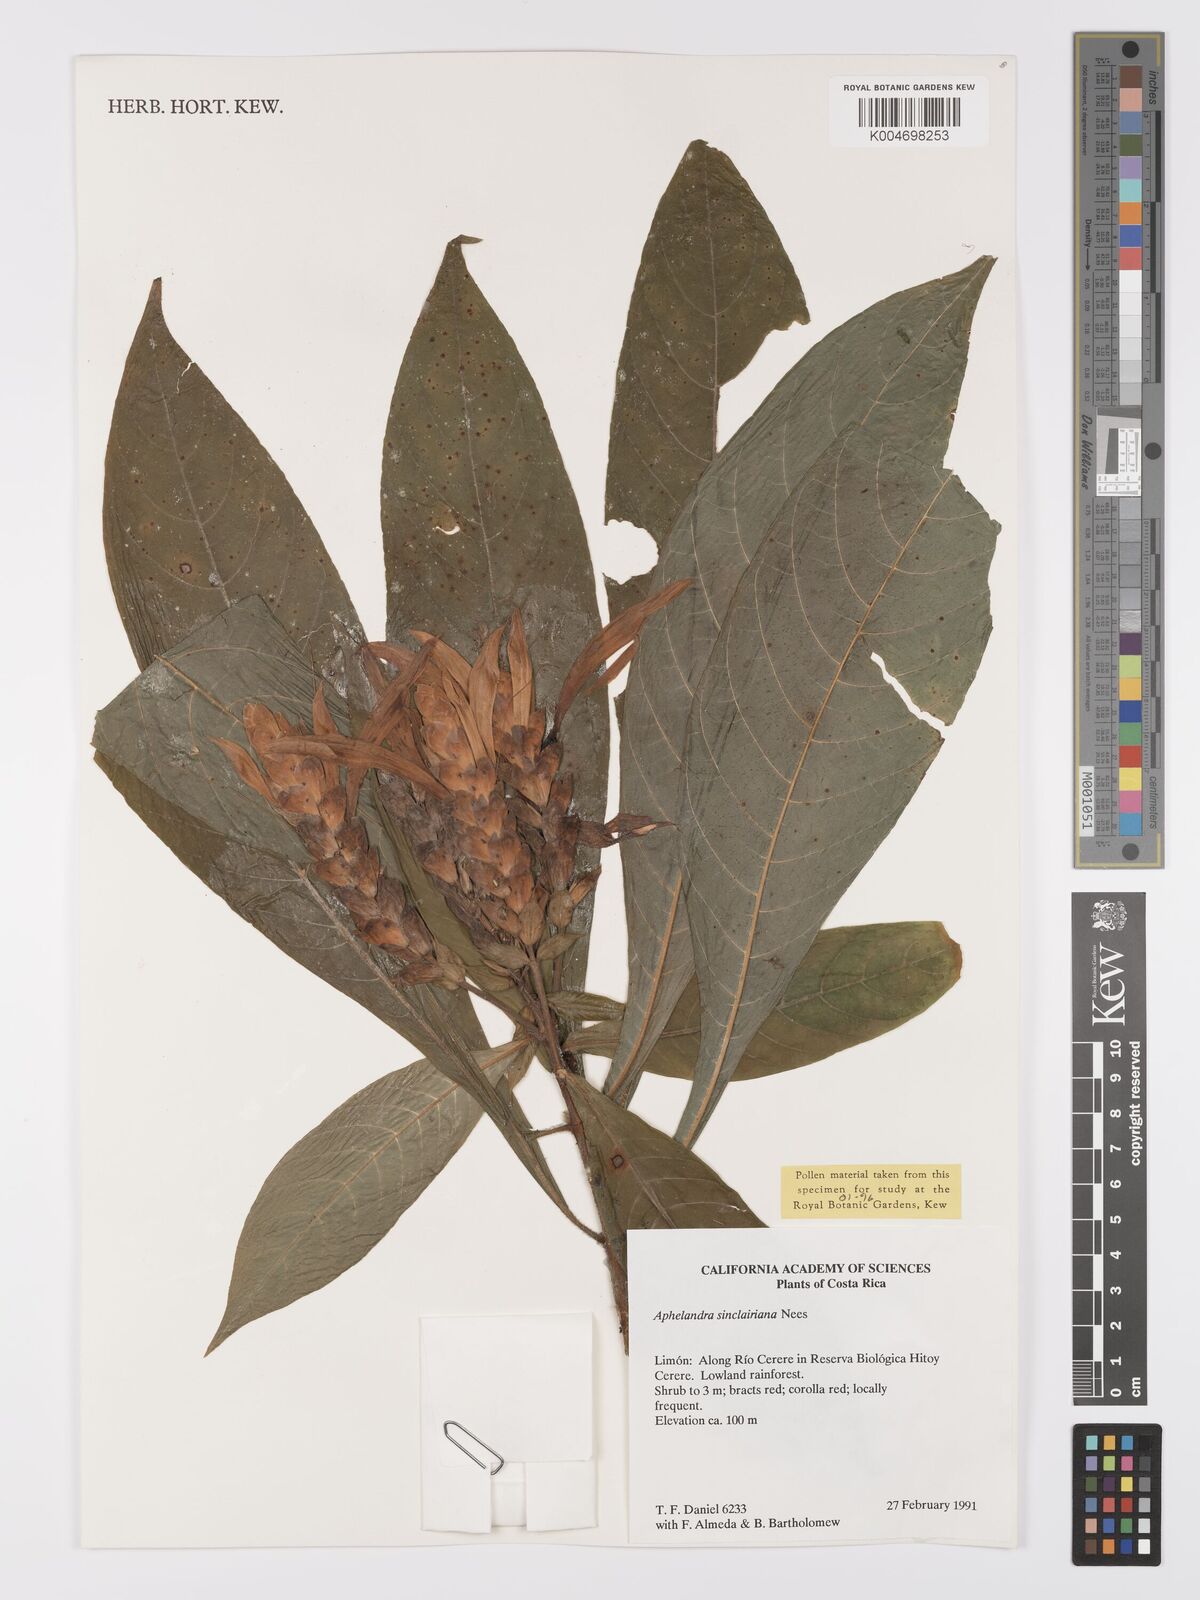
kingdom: Plantae
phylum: Tracheophyta
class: Magnoliopsida
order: Lamiales
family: Acanthaceae
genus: Aphelandra
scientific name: Aphelandra sinclairiana
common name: Coral aphelandra
